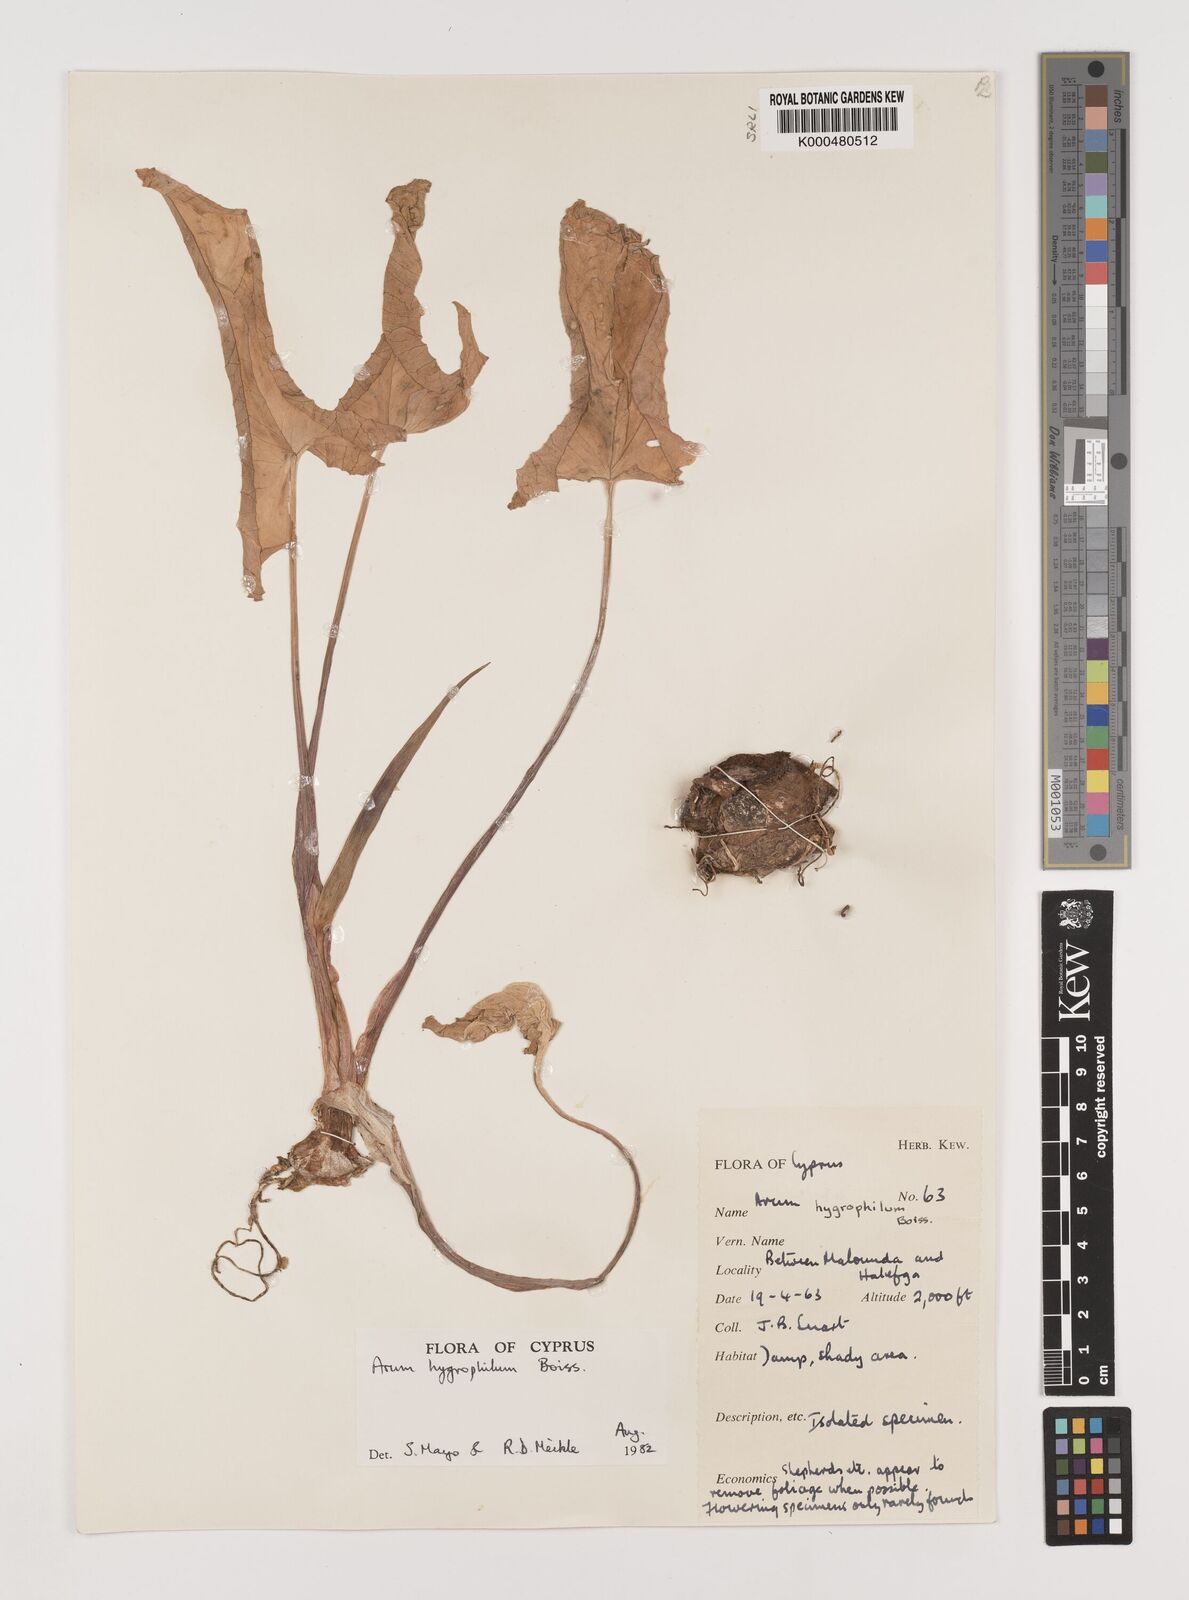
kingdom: Plantae
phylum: Tracheophyta
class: Liliopsida
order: Alismatales
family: Araceae
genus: Arum
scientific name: Arum hygrophilum
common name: Water arum
